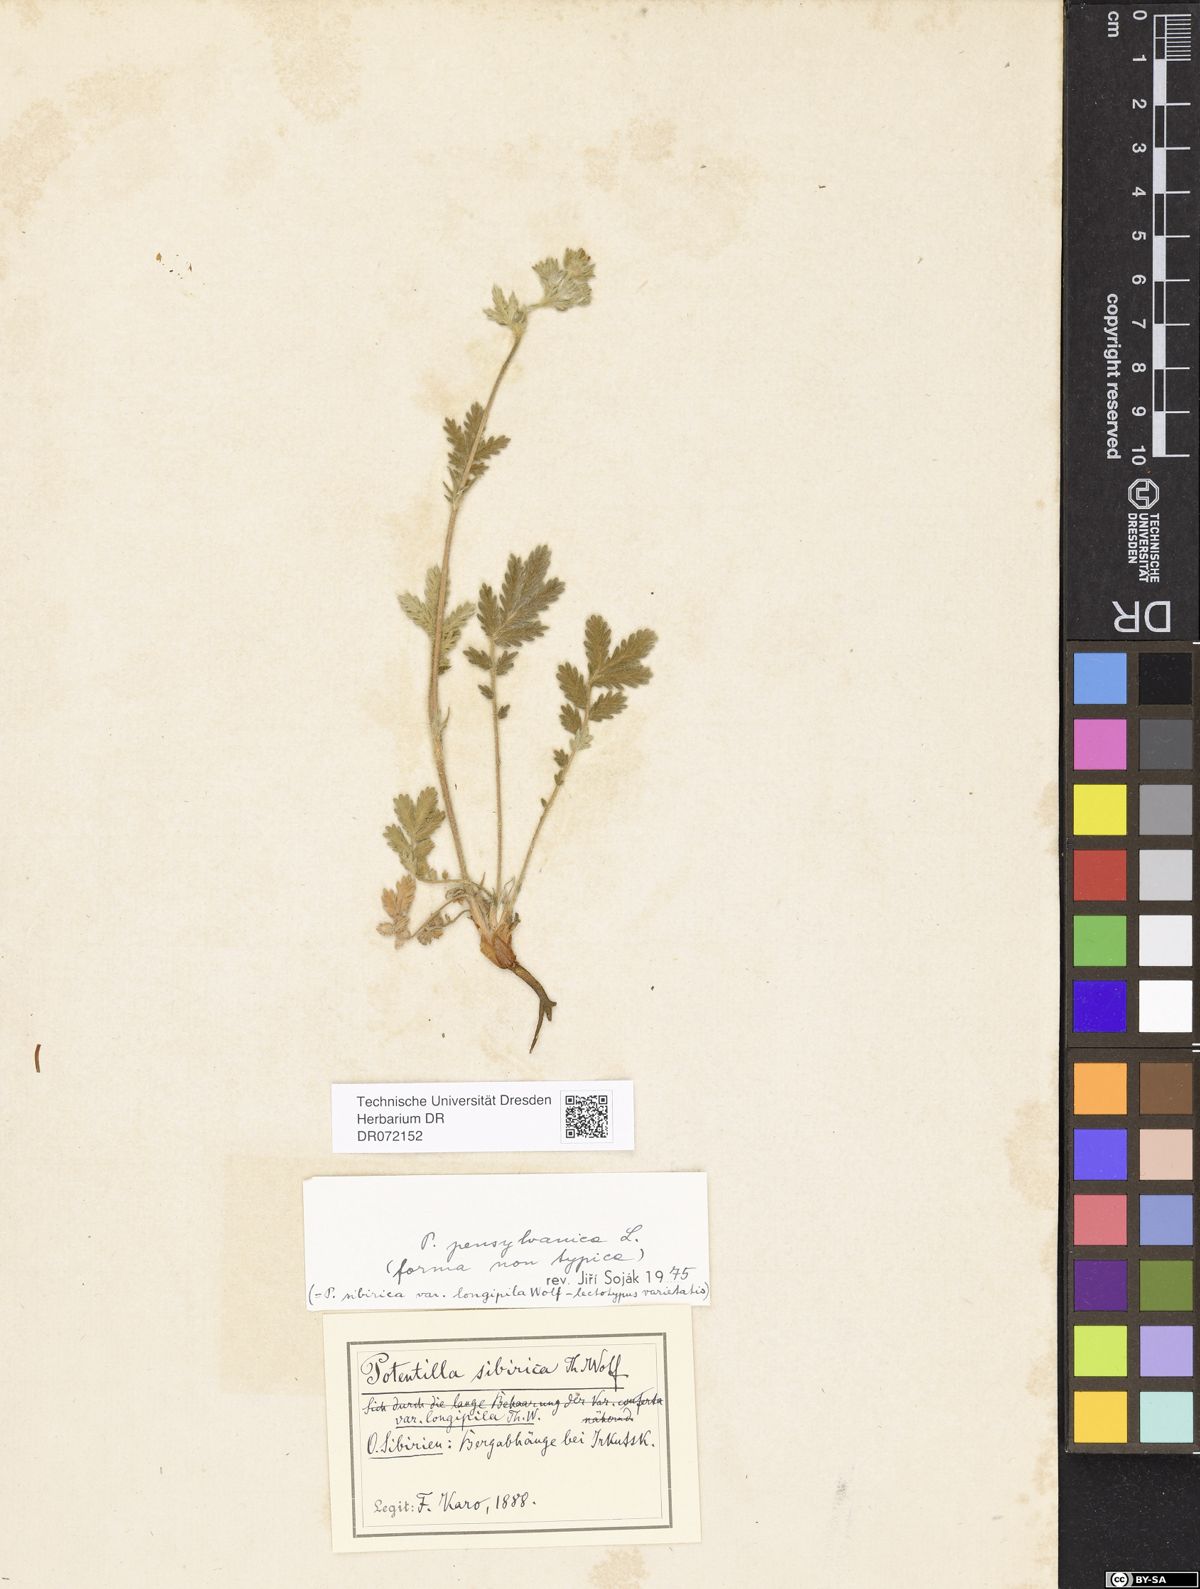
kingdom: Plantae
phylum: Tracheophyta
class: Magnoliopsida
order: Rosales
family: Rosaceae
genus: Potentilla
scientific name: Potentilla
